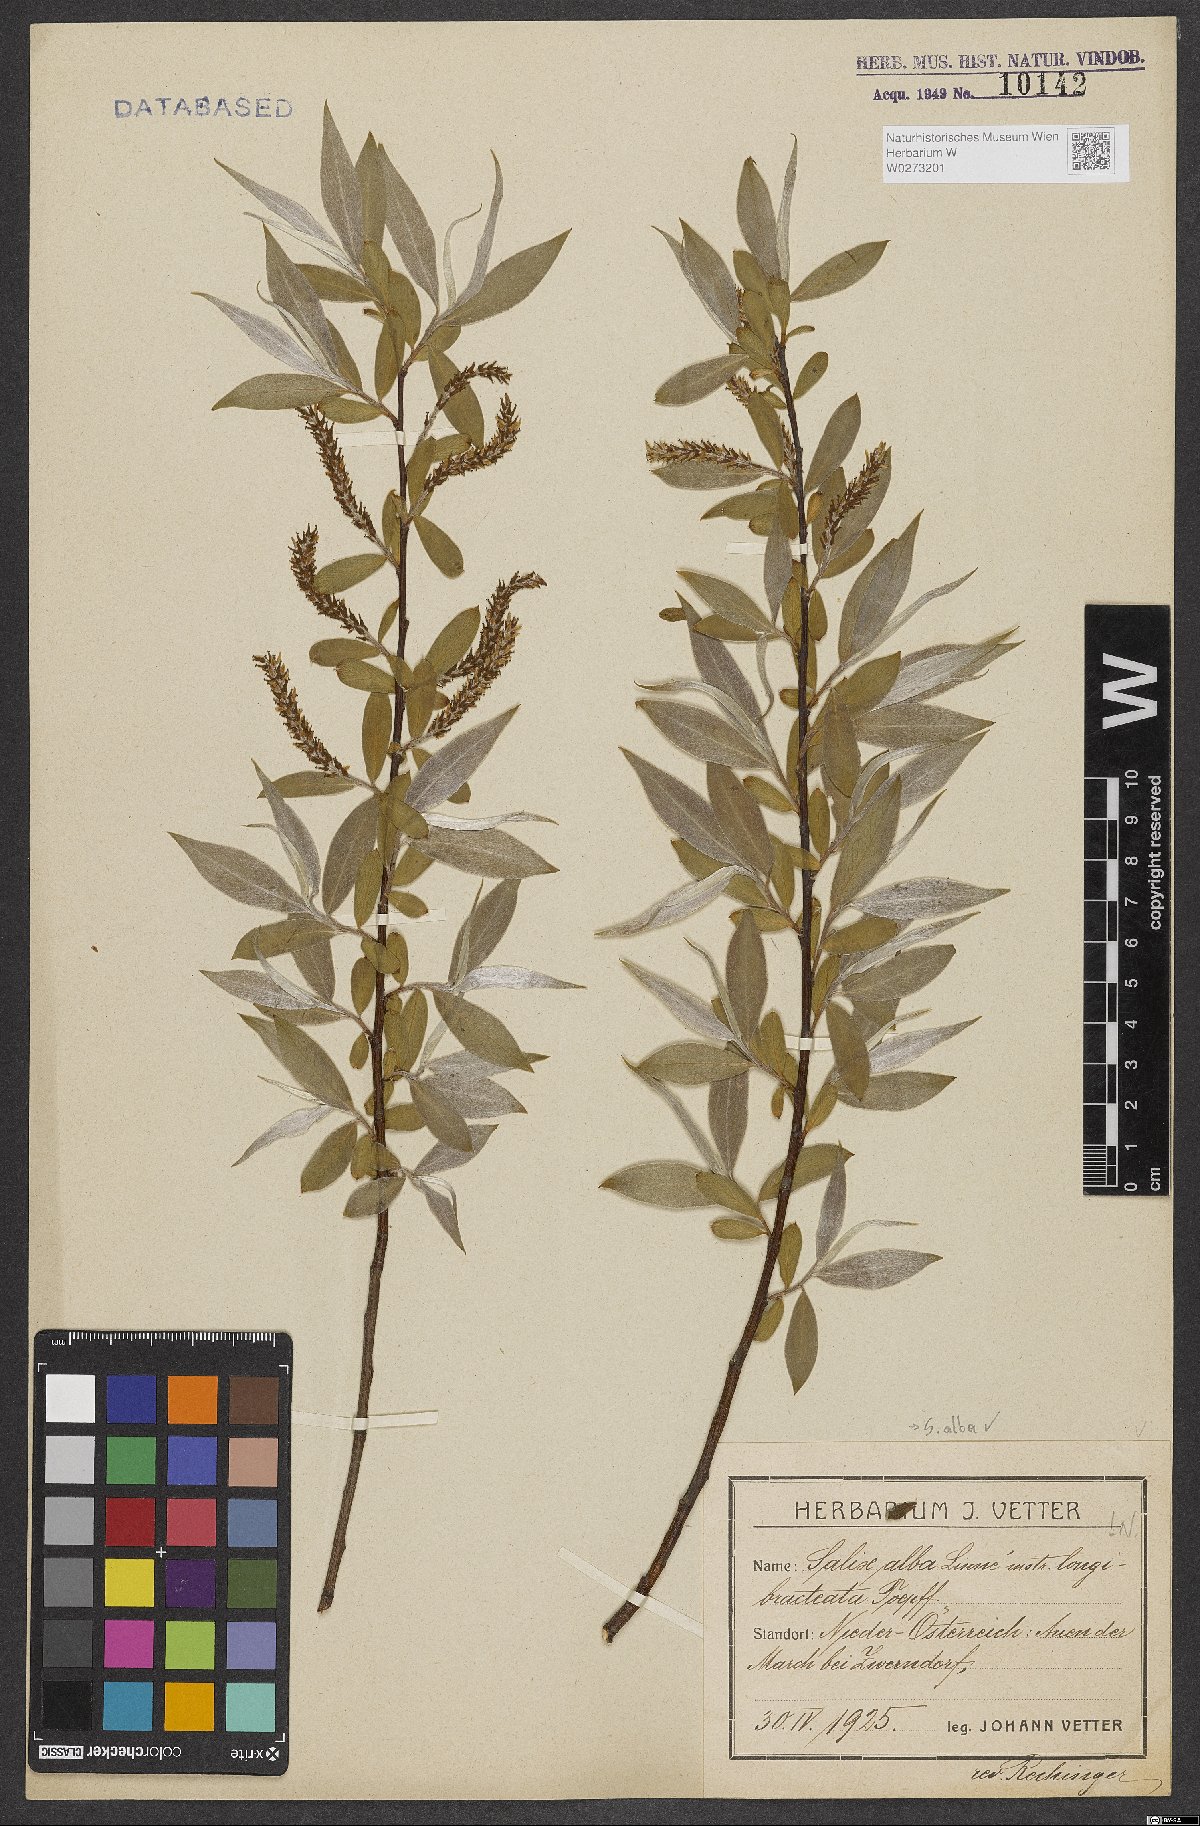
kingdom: Plantae
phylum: Tracheophyta
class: Magnoliopsida
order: Malpighiales
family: Salicaceae
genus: Salix
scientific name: Salix alba
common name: White willow
